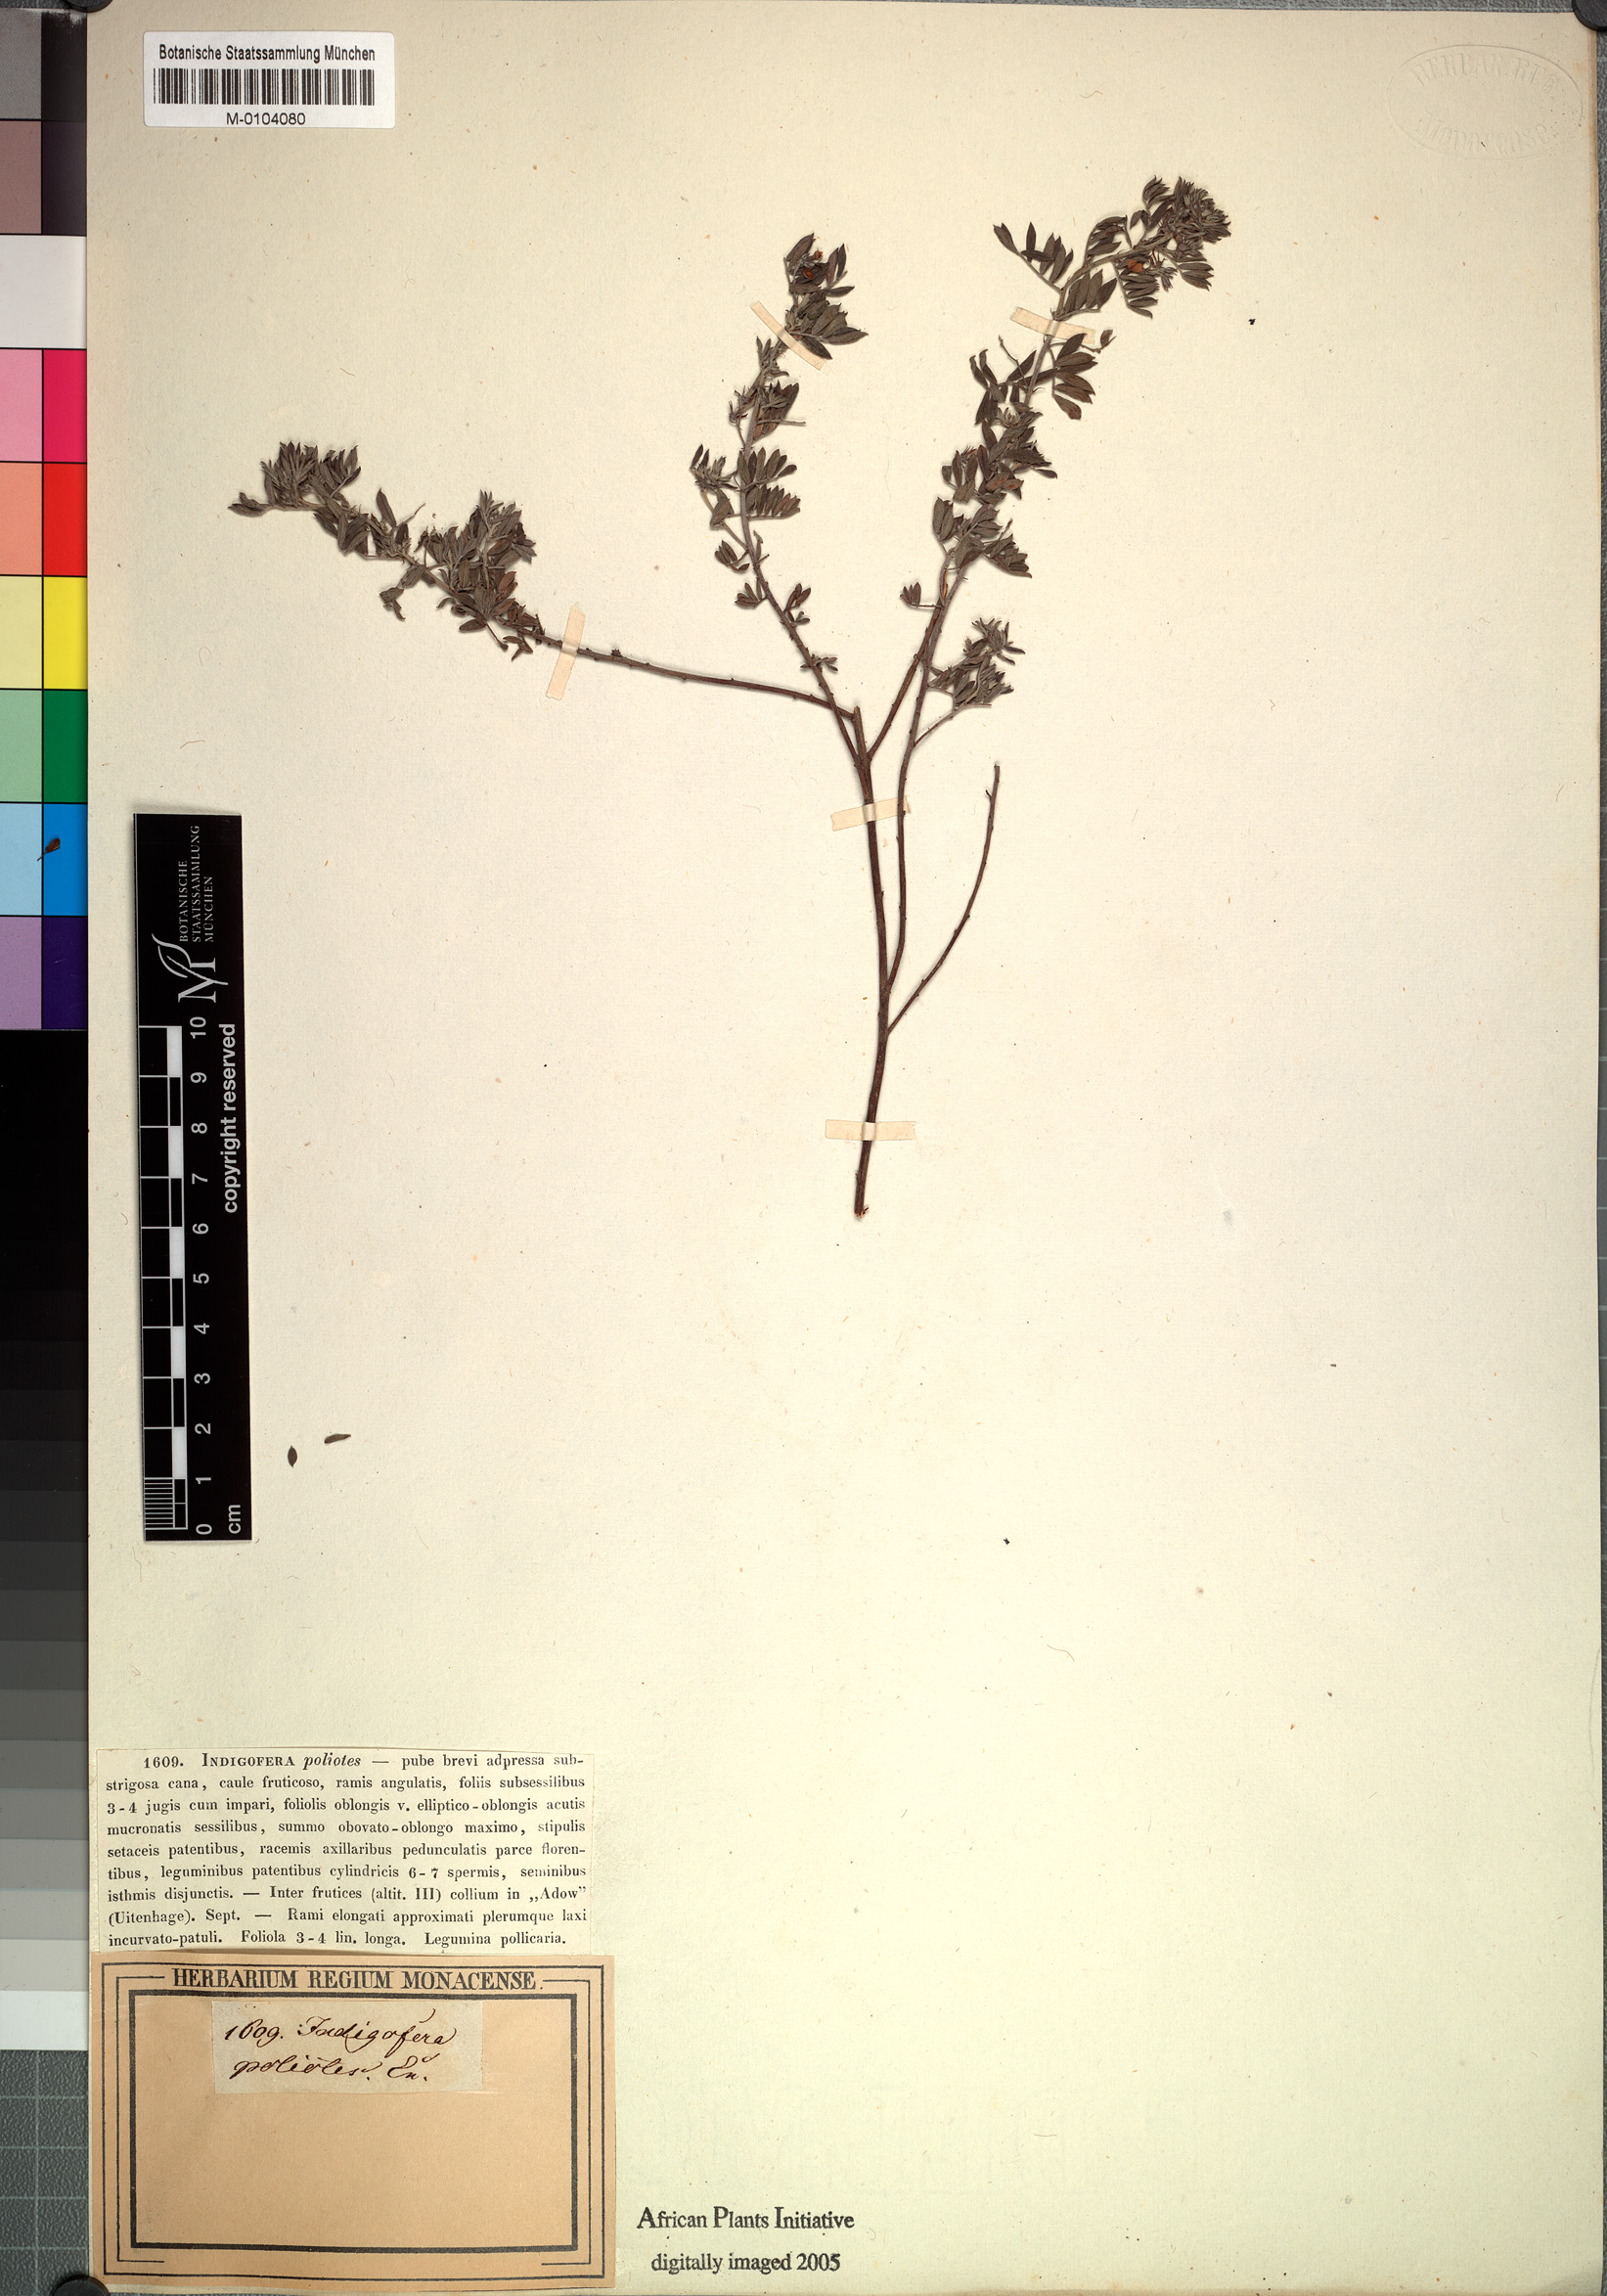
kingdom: Plantae
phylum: Tracheophyta
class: Magnoliopsida
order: Fabales
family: Fabaceae
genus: Indigofera
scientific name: Indigofera poliotes
